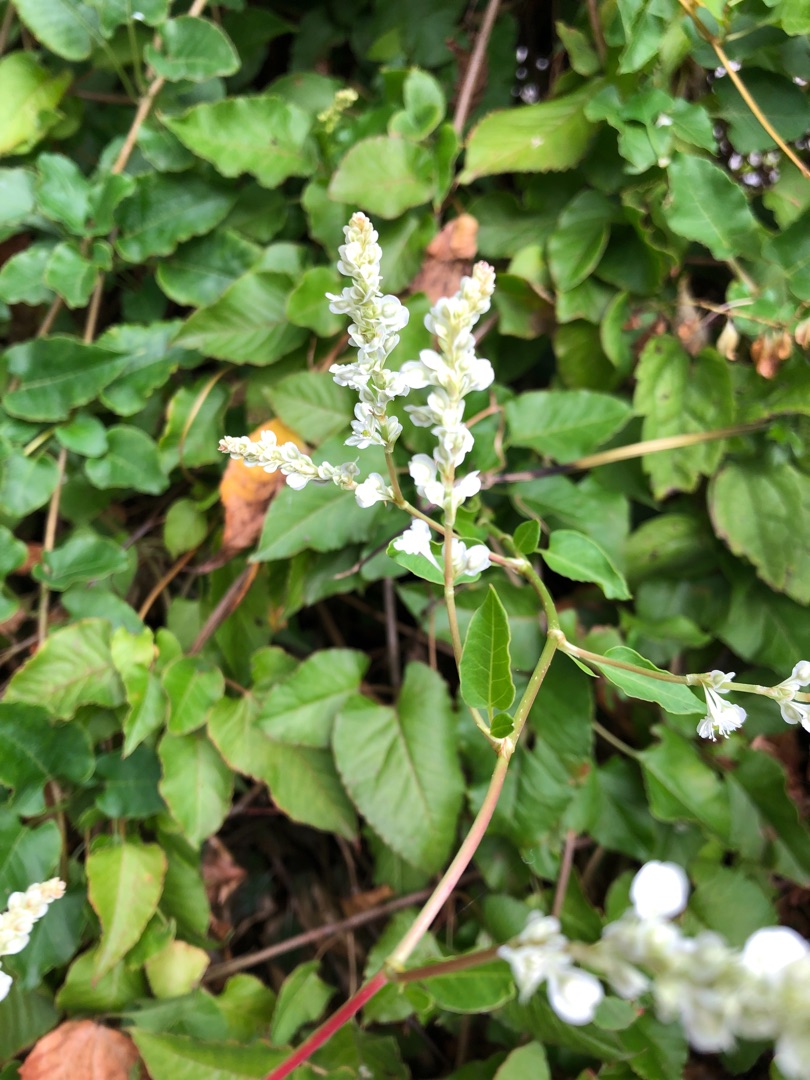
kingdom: Plantae
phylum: Tracheophyta
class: Magnoliopsida
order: Caryophyllales
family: Polygonaceae
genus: Fallopia
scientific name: Fallopia dumetorum
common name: Vinge-pileurt
